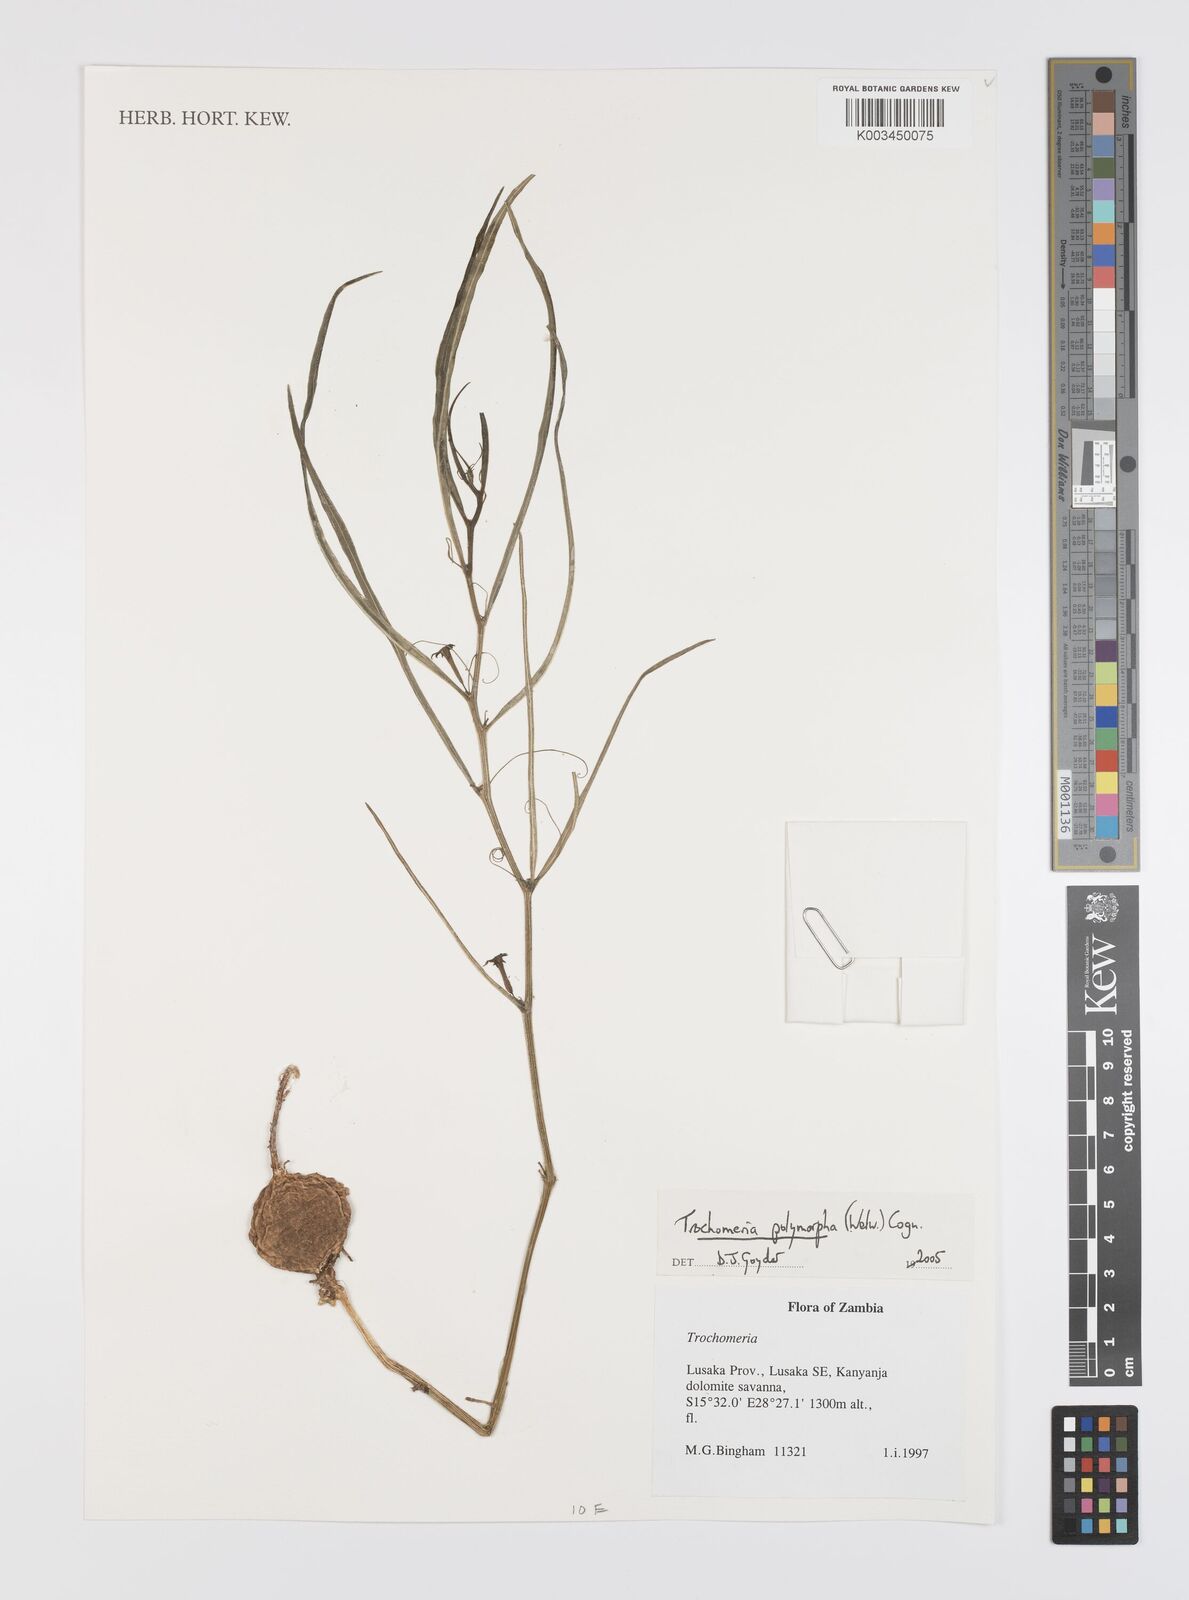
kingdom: Plantae
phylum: Tracheophyta
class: Magnoliopsida
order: Cucurbitales
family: Cucurbitaceae
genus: Trochomeria
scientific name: Trochomeria polymorpha
